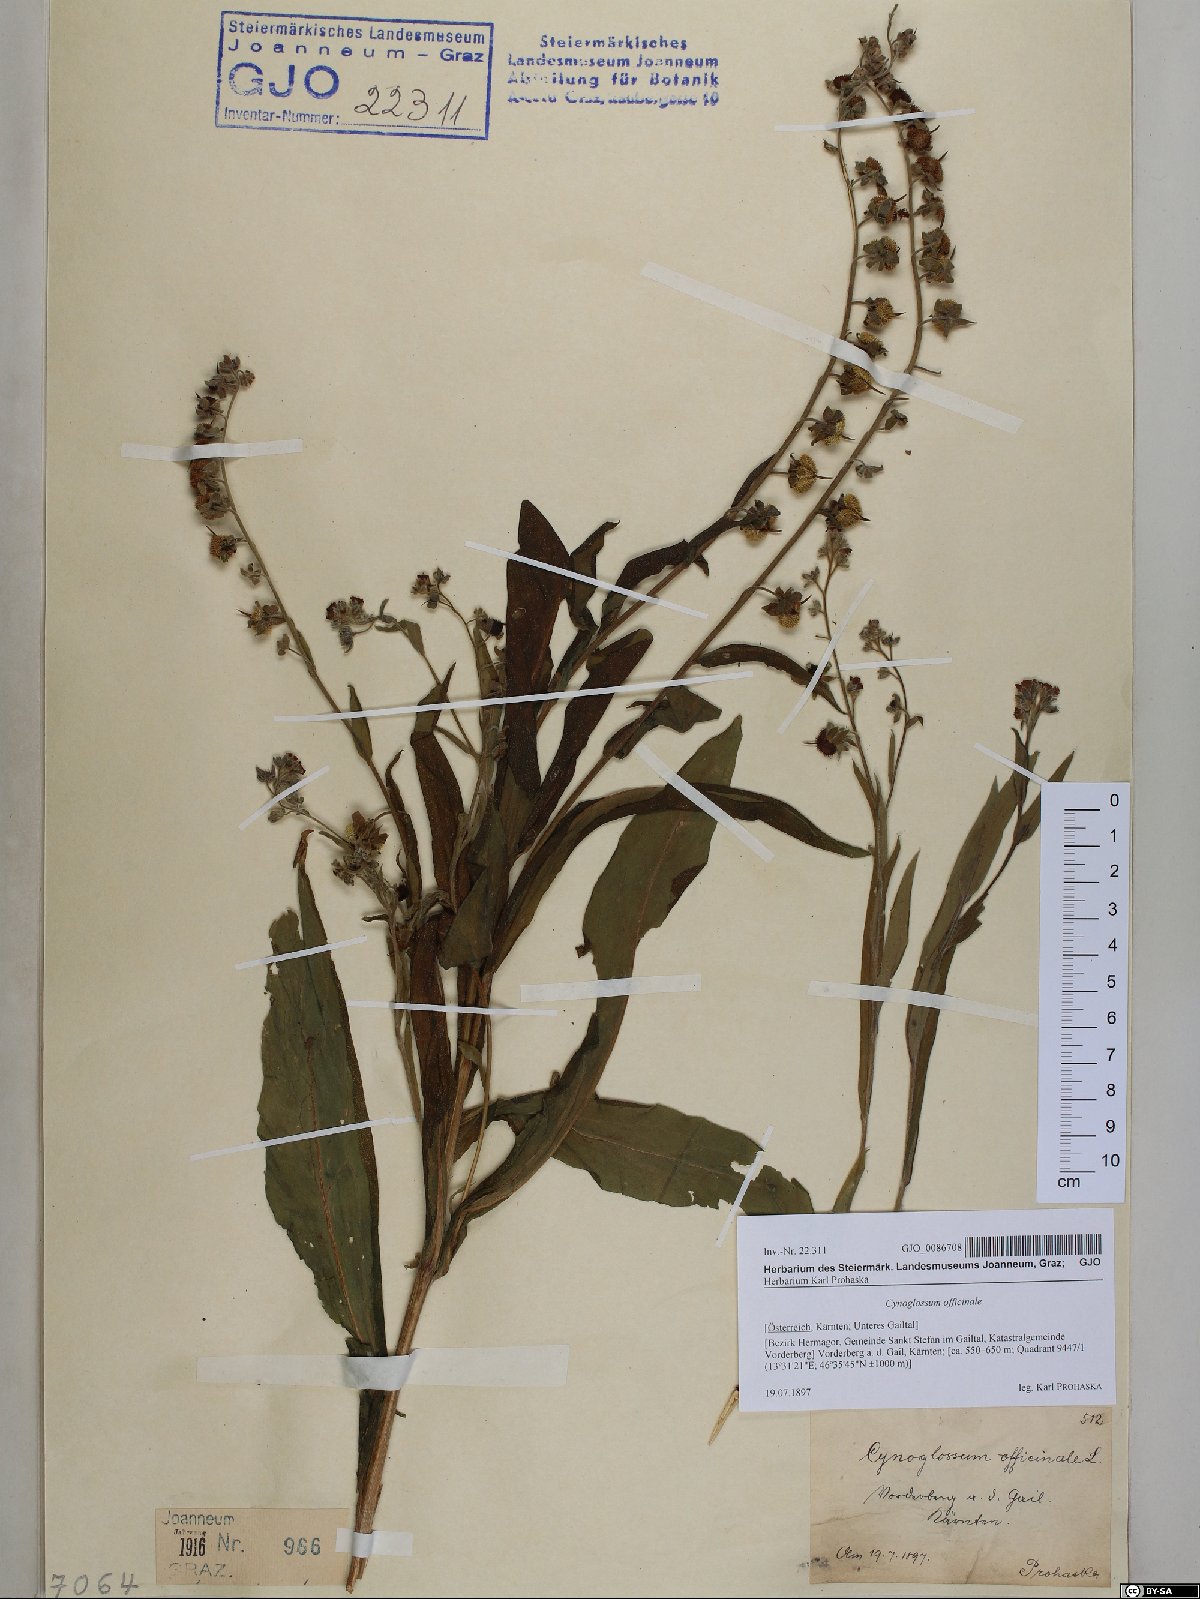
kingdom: Plantae
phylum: Tracheophyta
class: Magnoliopsida
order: Boraginales
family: Boraginaceae
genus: Cynoglossum
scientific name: Cynoglossum officinale
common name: Hound's-tongue
